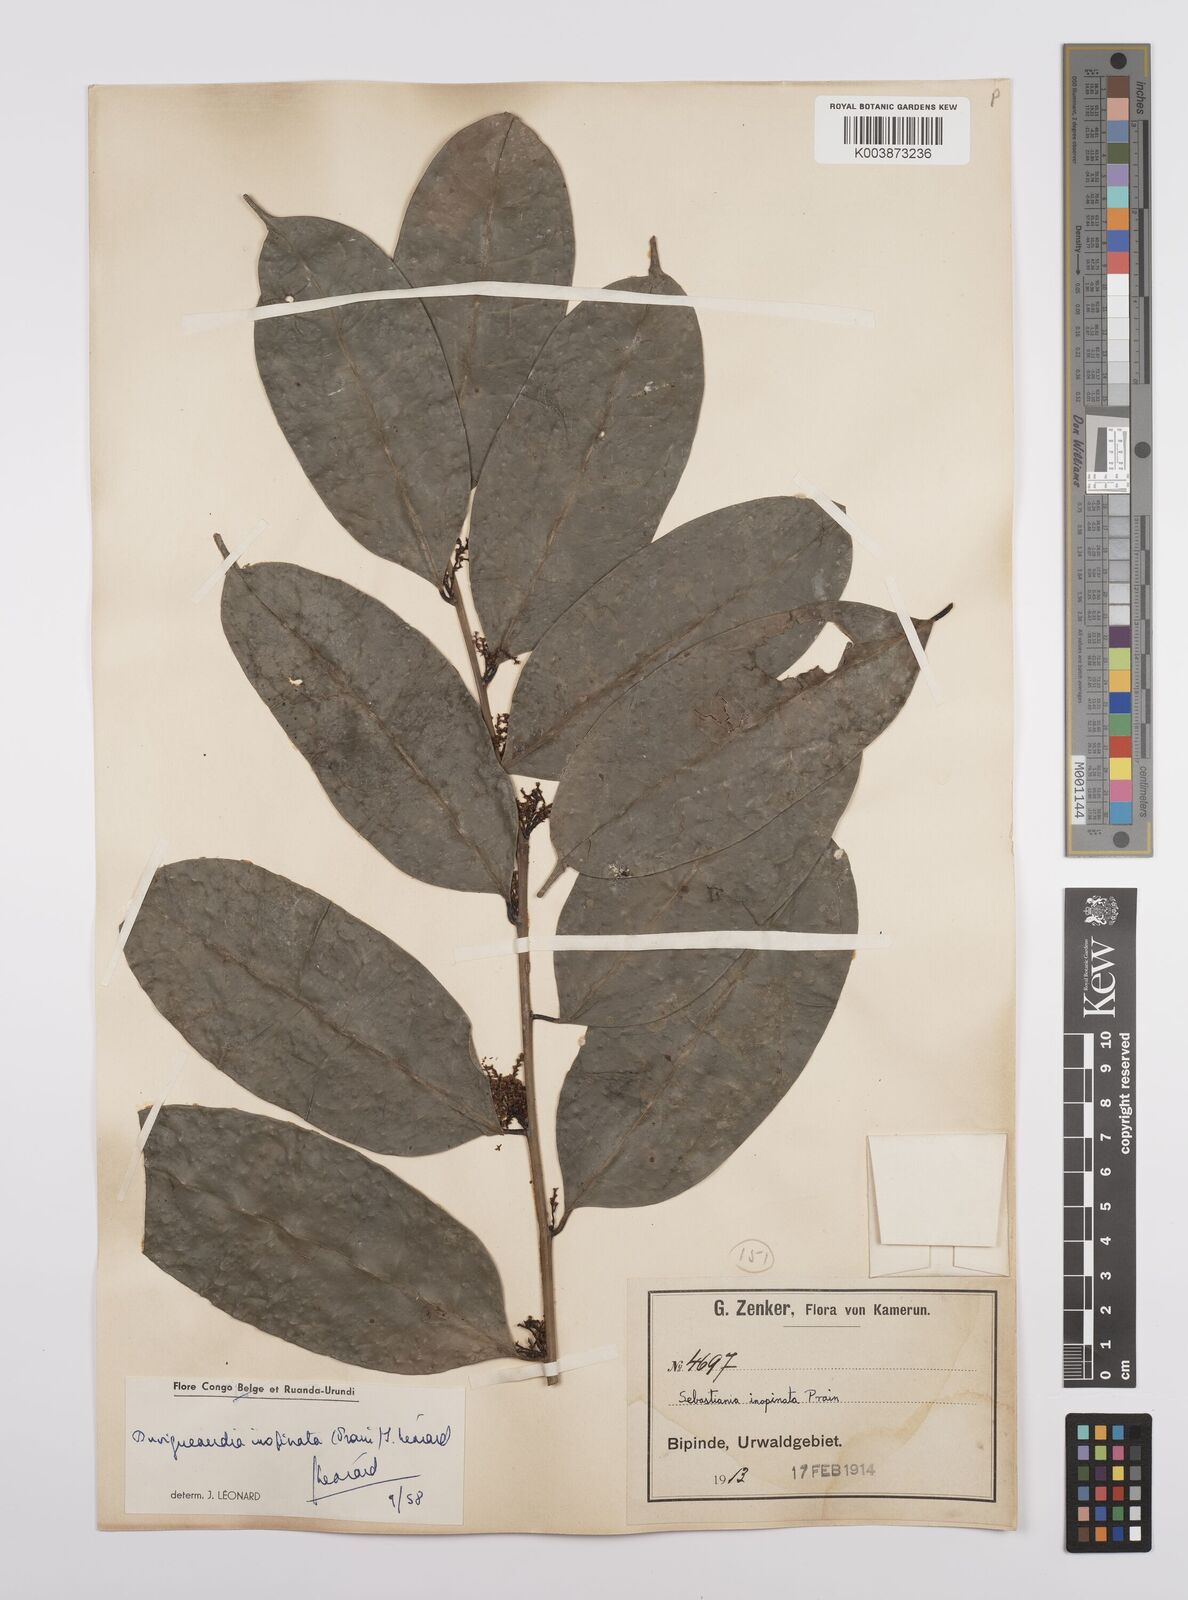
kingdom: Plantae
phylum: Tracheophyta
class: Magnoliopsida
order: Malpighiales
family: Euphorbiaceae
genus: Gymnanthes
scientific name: Gymnanthes inopinata
